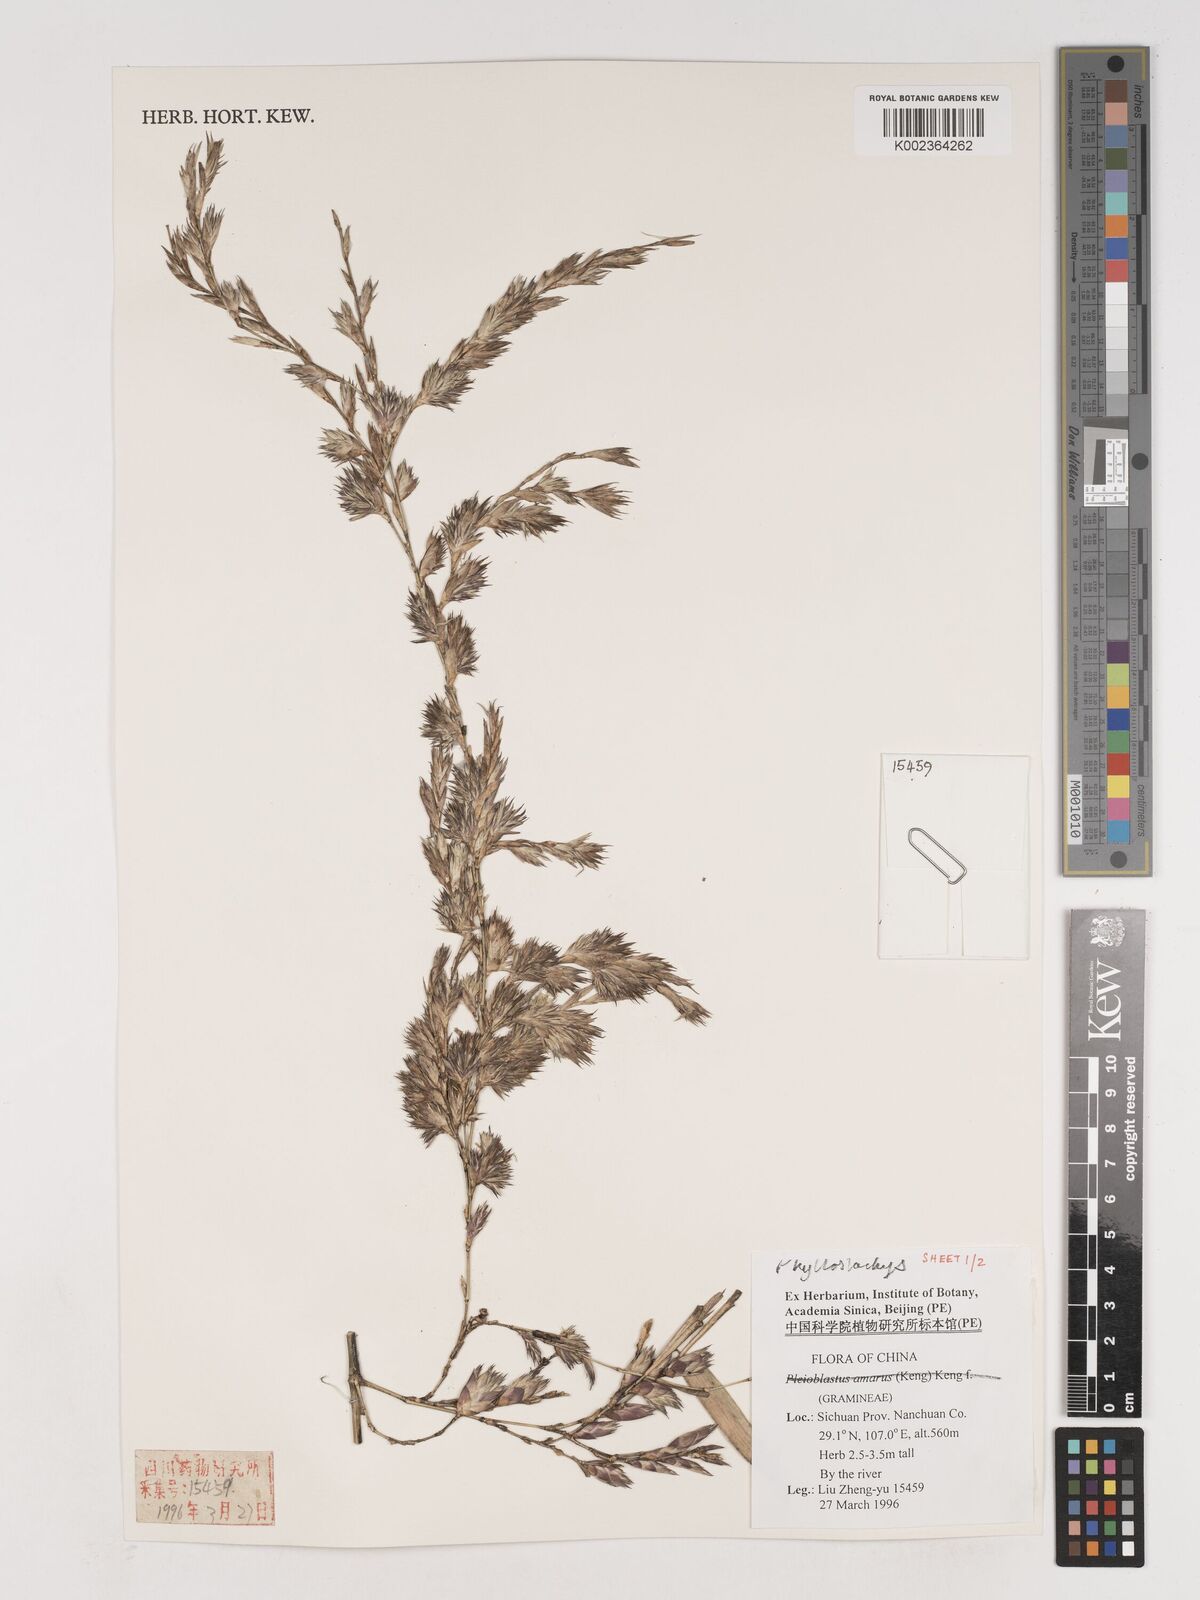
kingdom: Plantae
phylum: Tracheophyta
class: Liliopsida
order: Poales
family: Poaceae
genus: Phyllostachys
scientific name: Phyllostachys nigra
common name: Black bamboo
